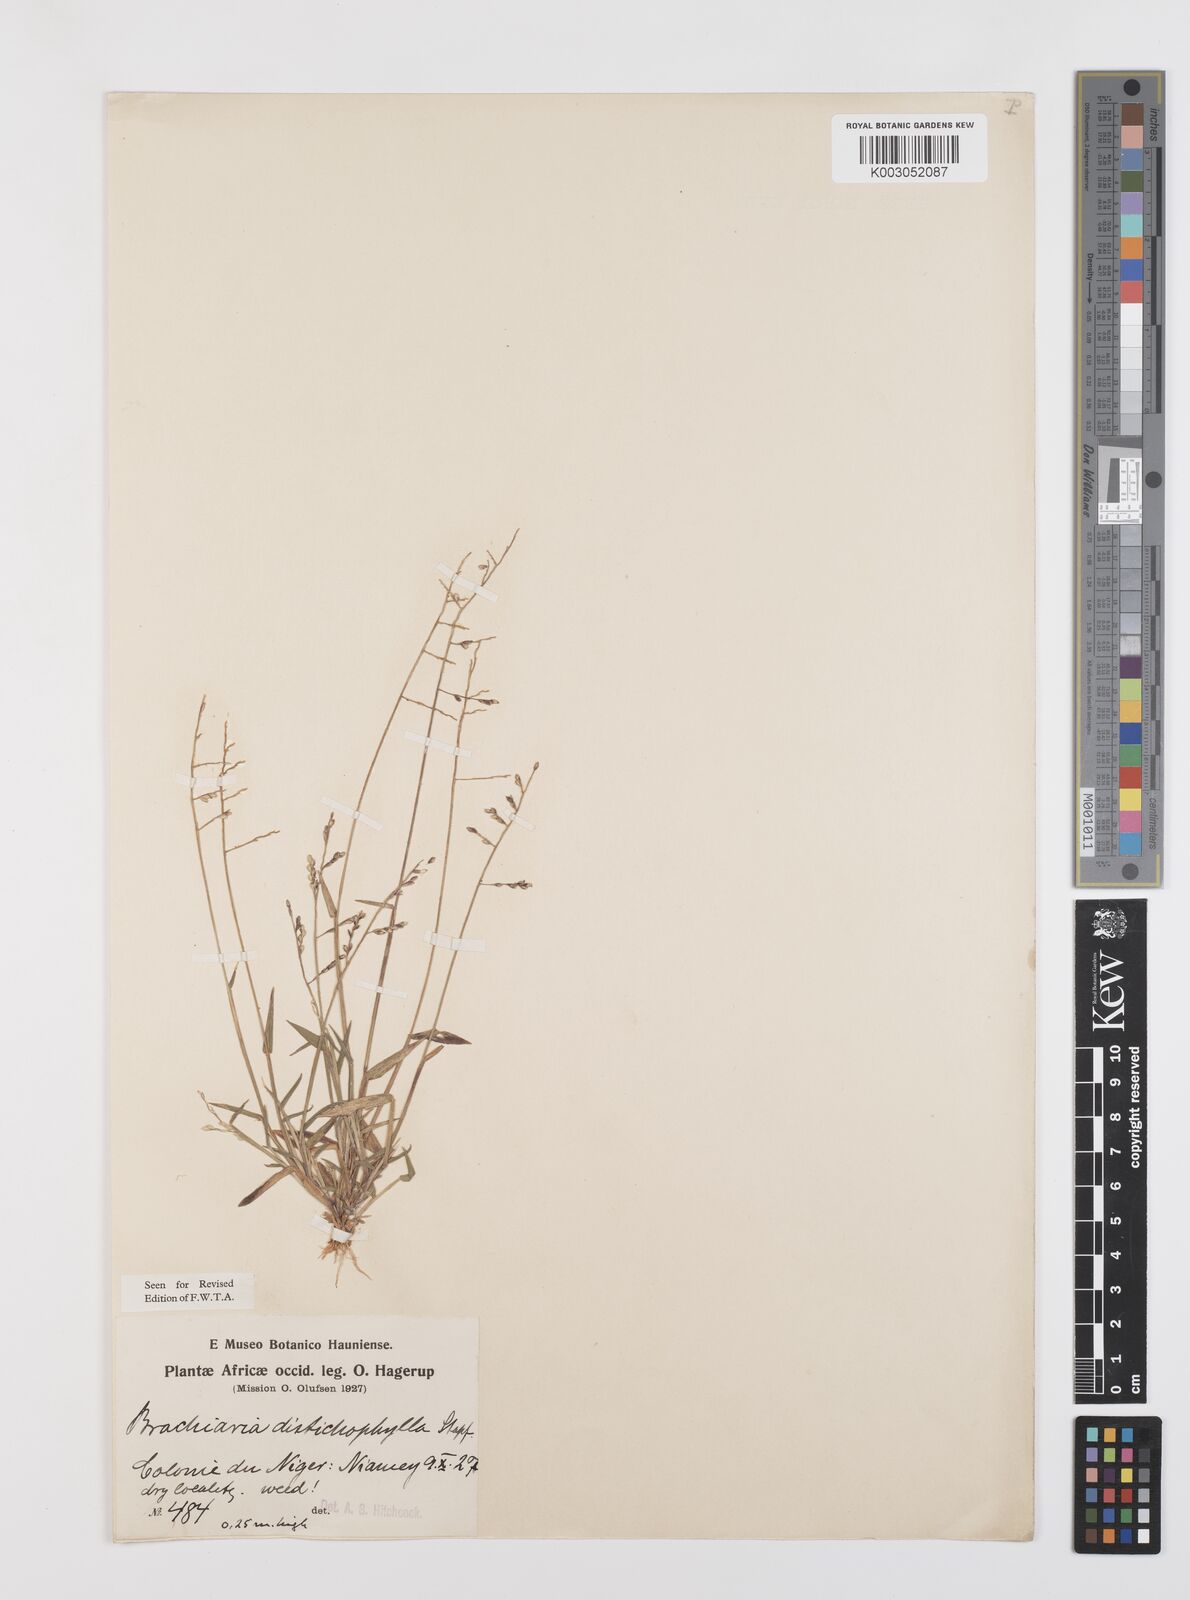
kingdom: Plantae
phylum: Tracheophyta
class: Liliopsida
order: Poales
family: Poaceae
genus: Urochloa
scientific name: Urochloa villosa
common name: Hairy signalgrass
